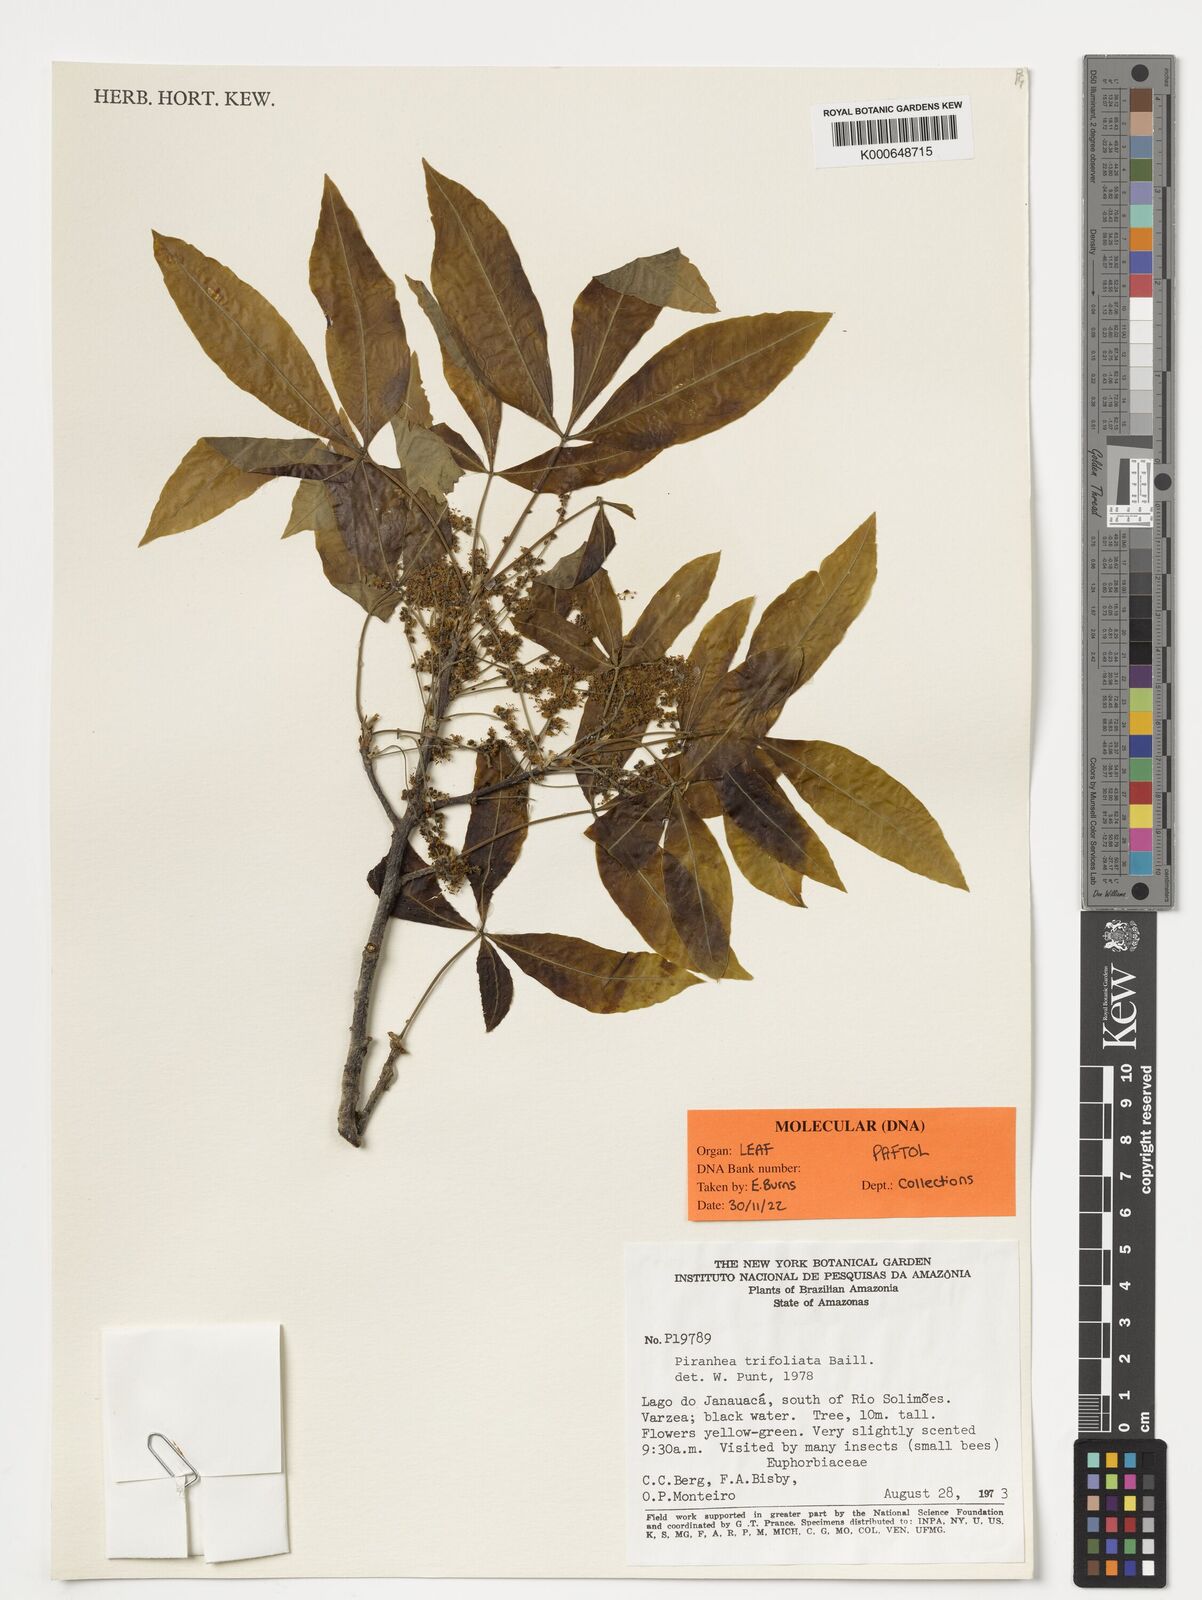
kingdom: Plantae
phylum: Tracheophyta
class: Magnoliopsida
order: Malpighiales
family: Picrodendraceae
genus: Piranhea
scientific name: Piranhea trifoliolata
